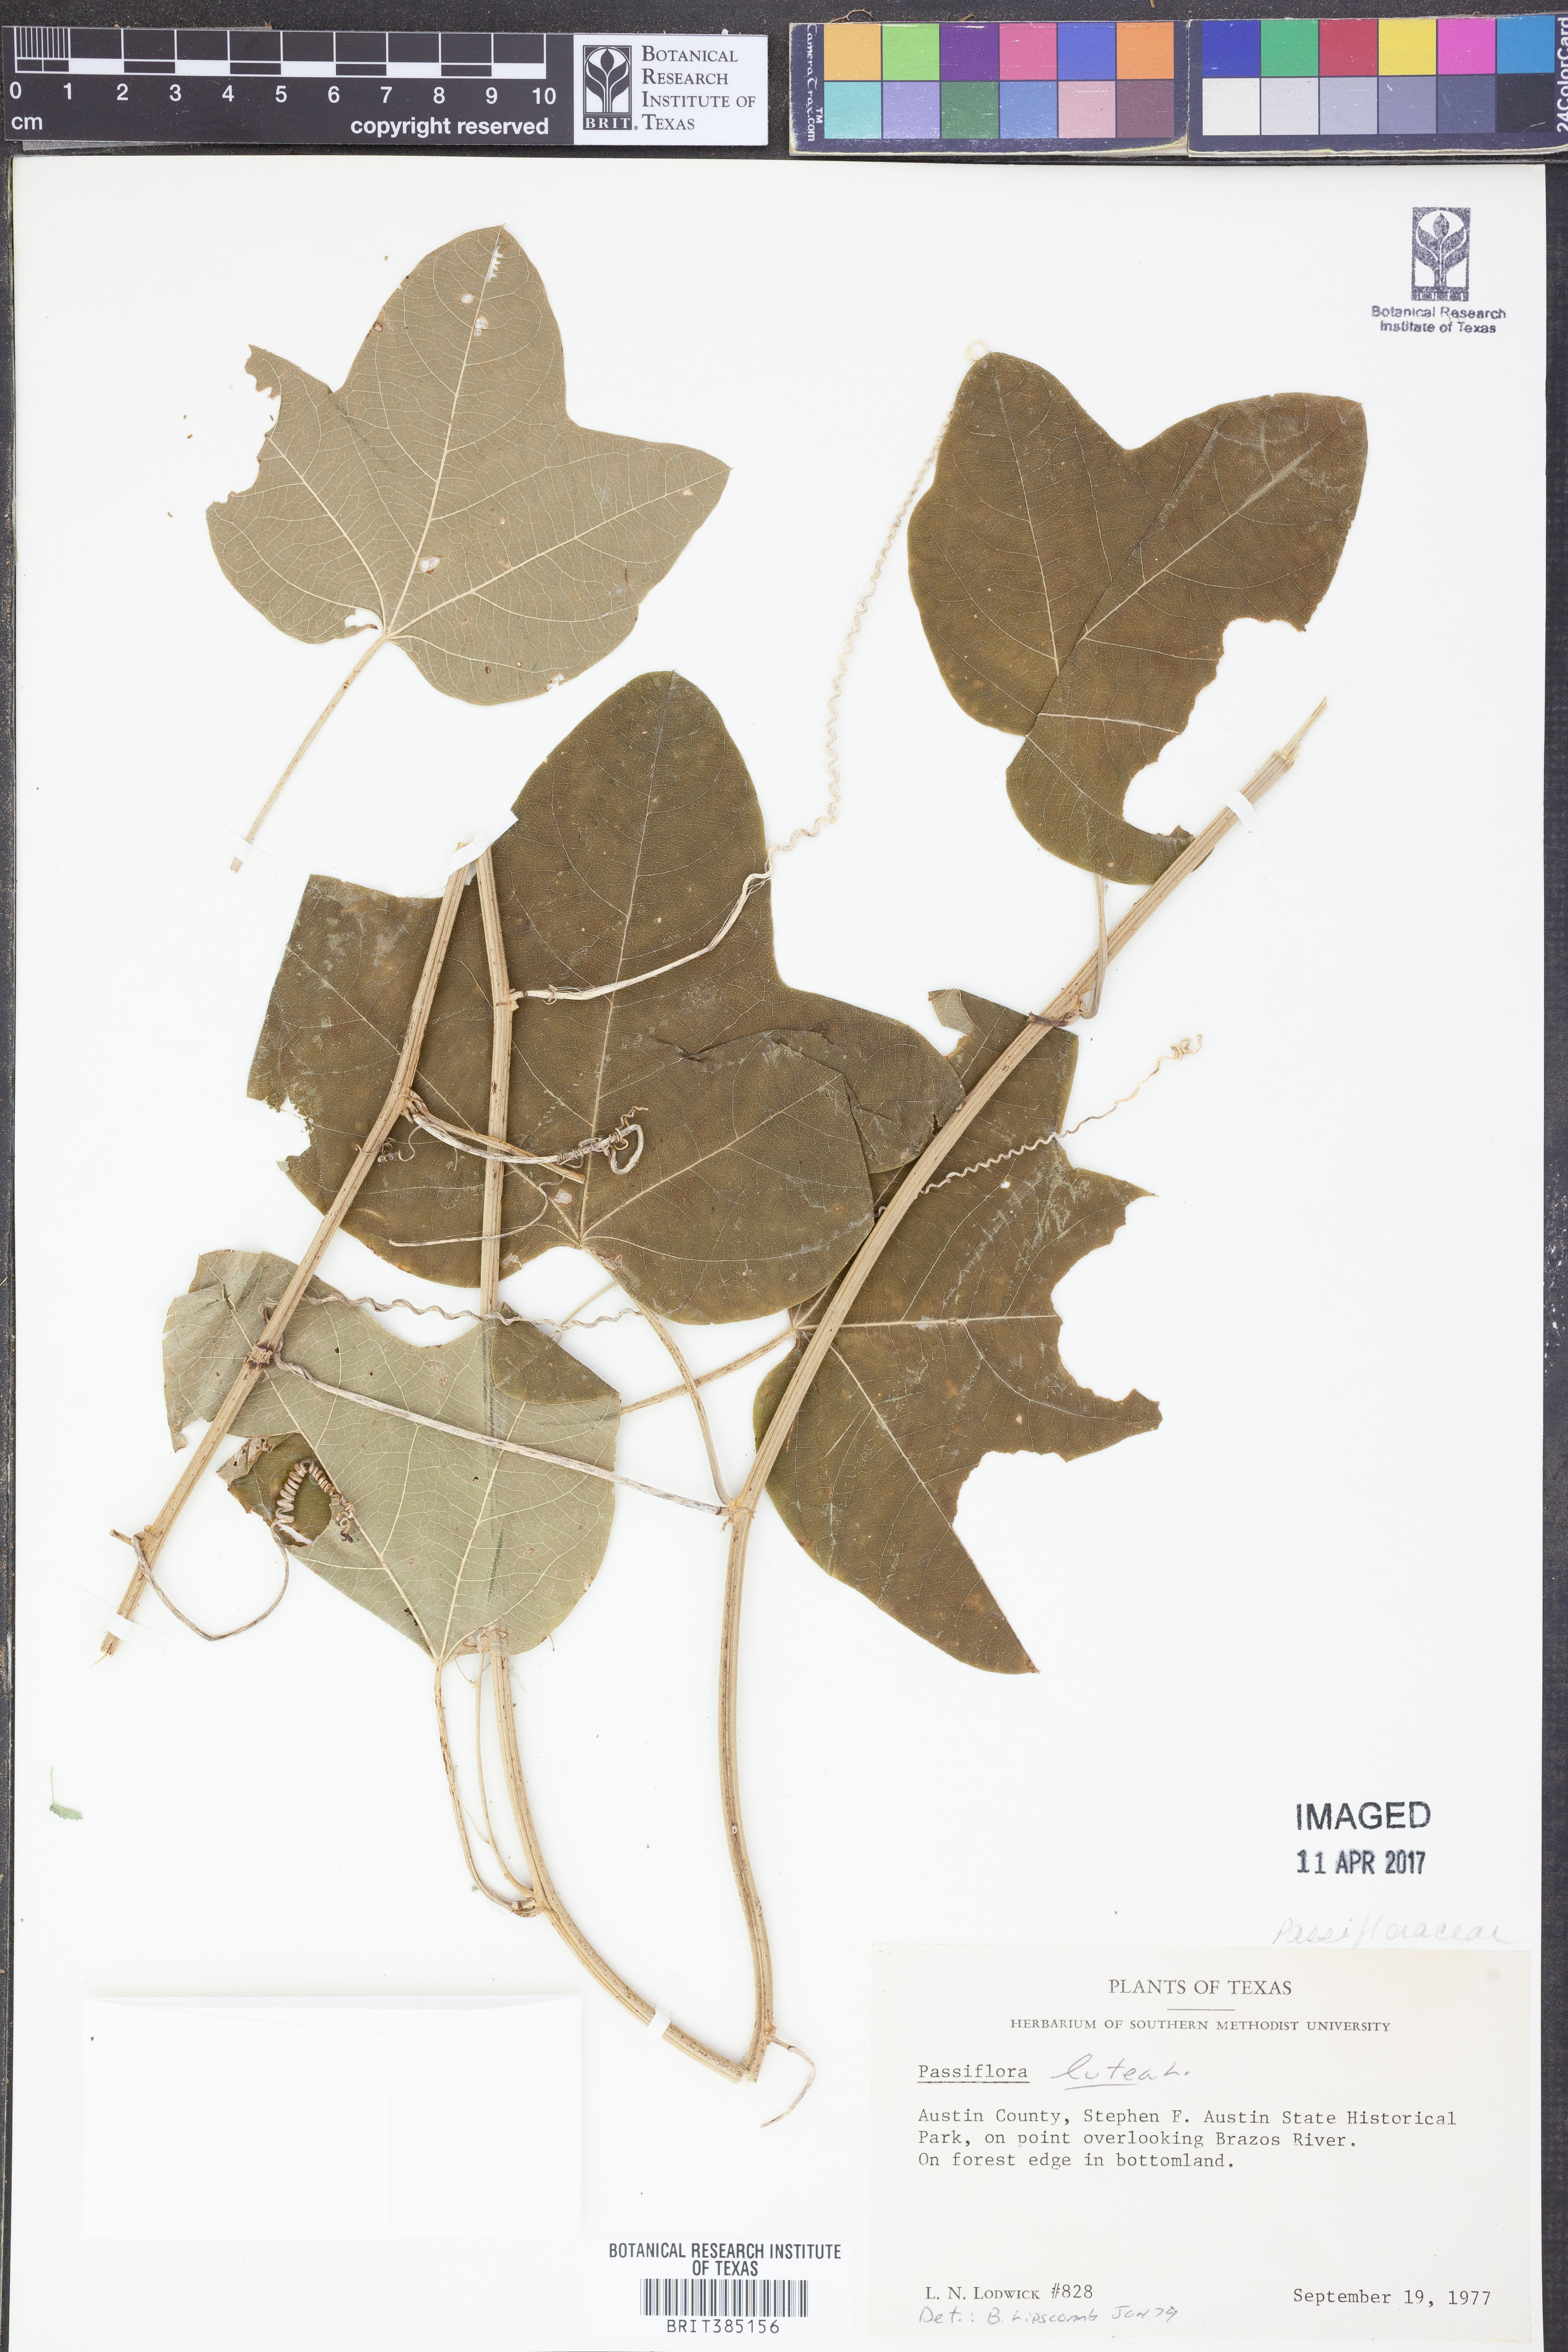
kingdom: Plantae
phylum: Tracheophyta
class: Magnoliopsida
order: Malpighiales
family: Passifloraceae
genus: Passiflora
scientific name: Passiflora lutea
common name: Yellow passionflower
